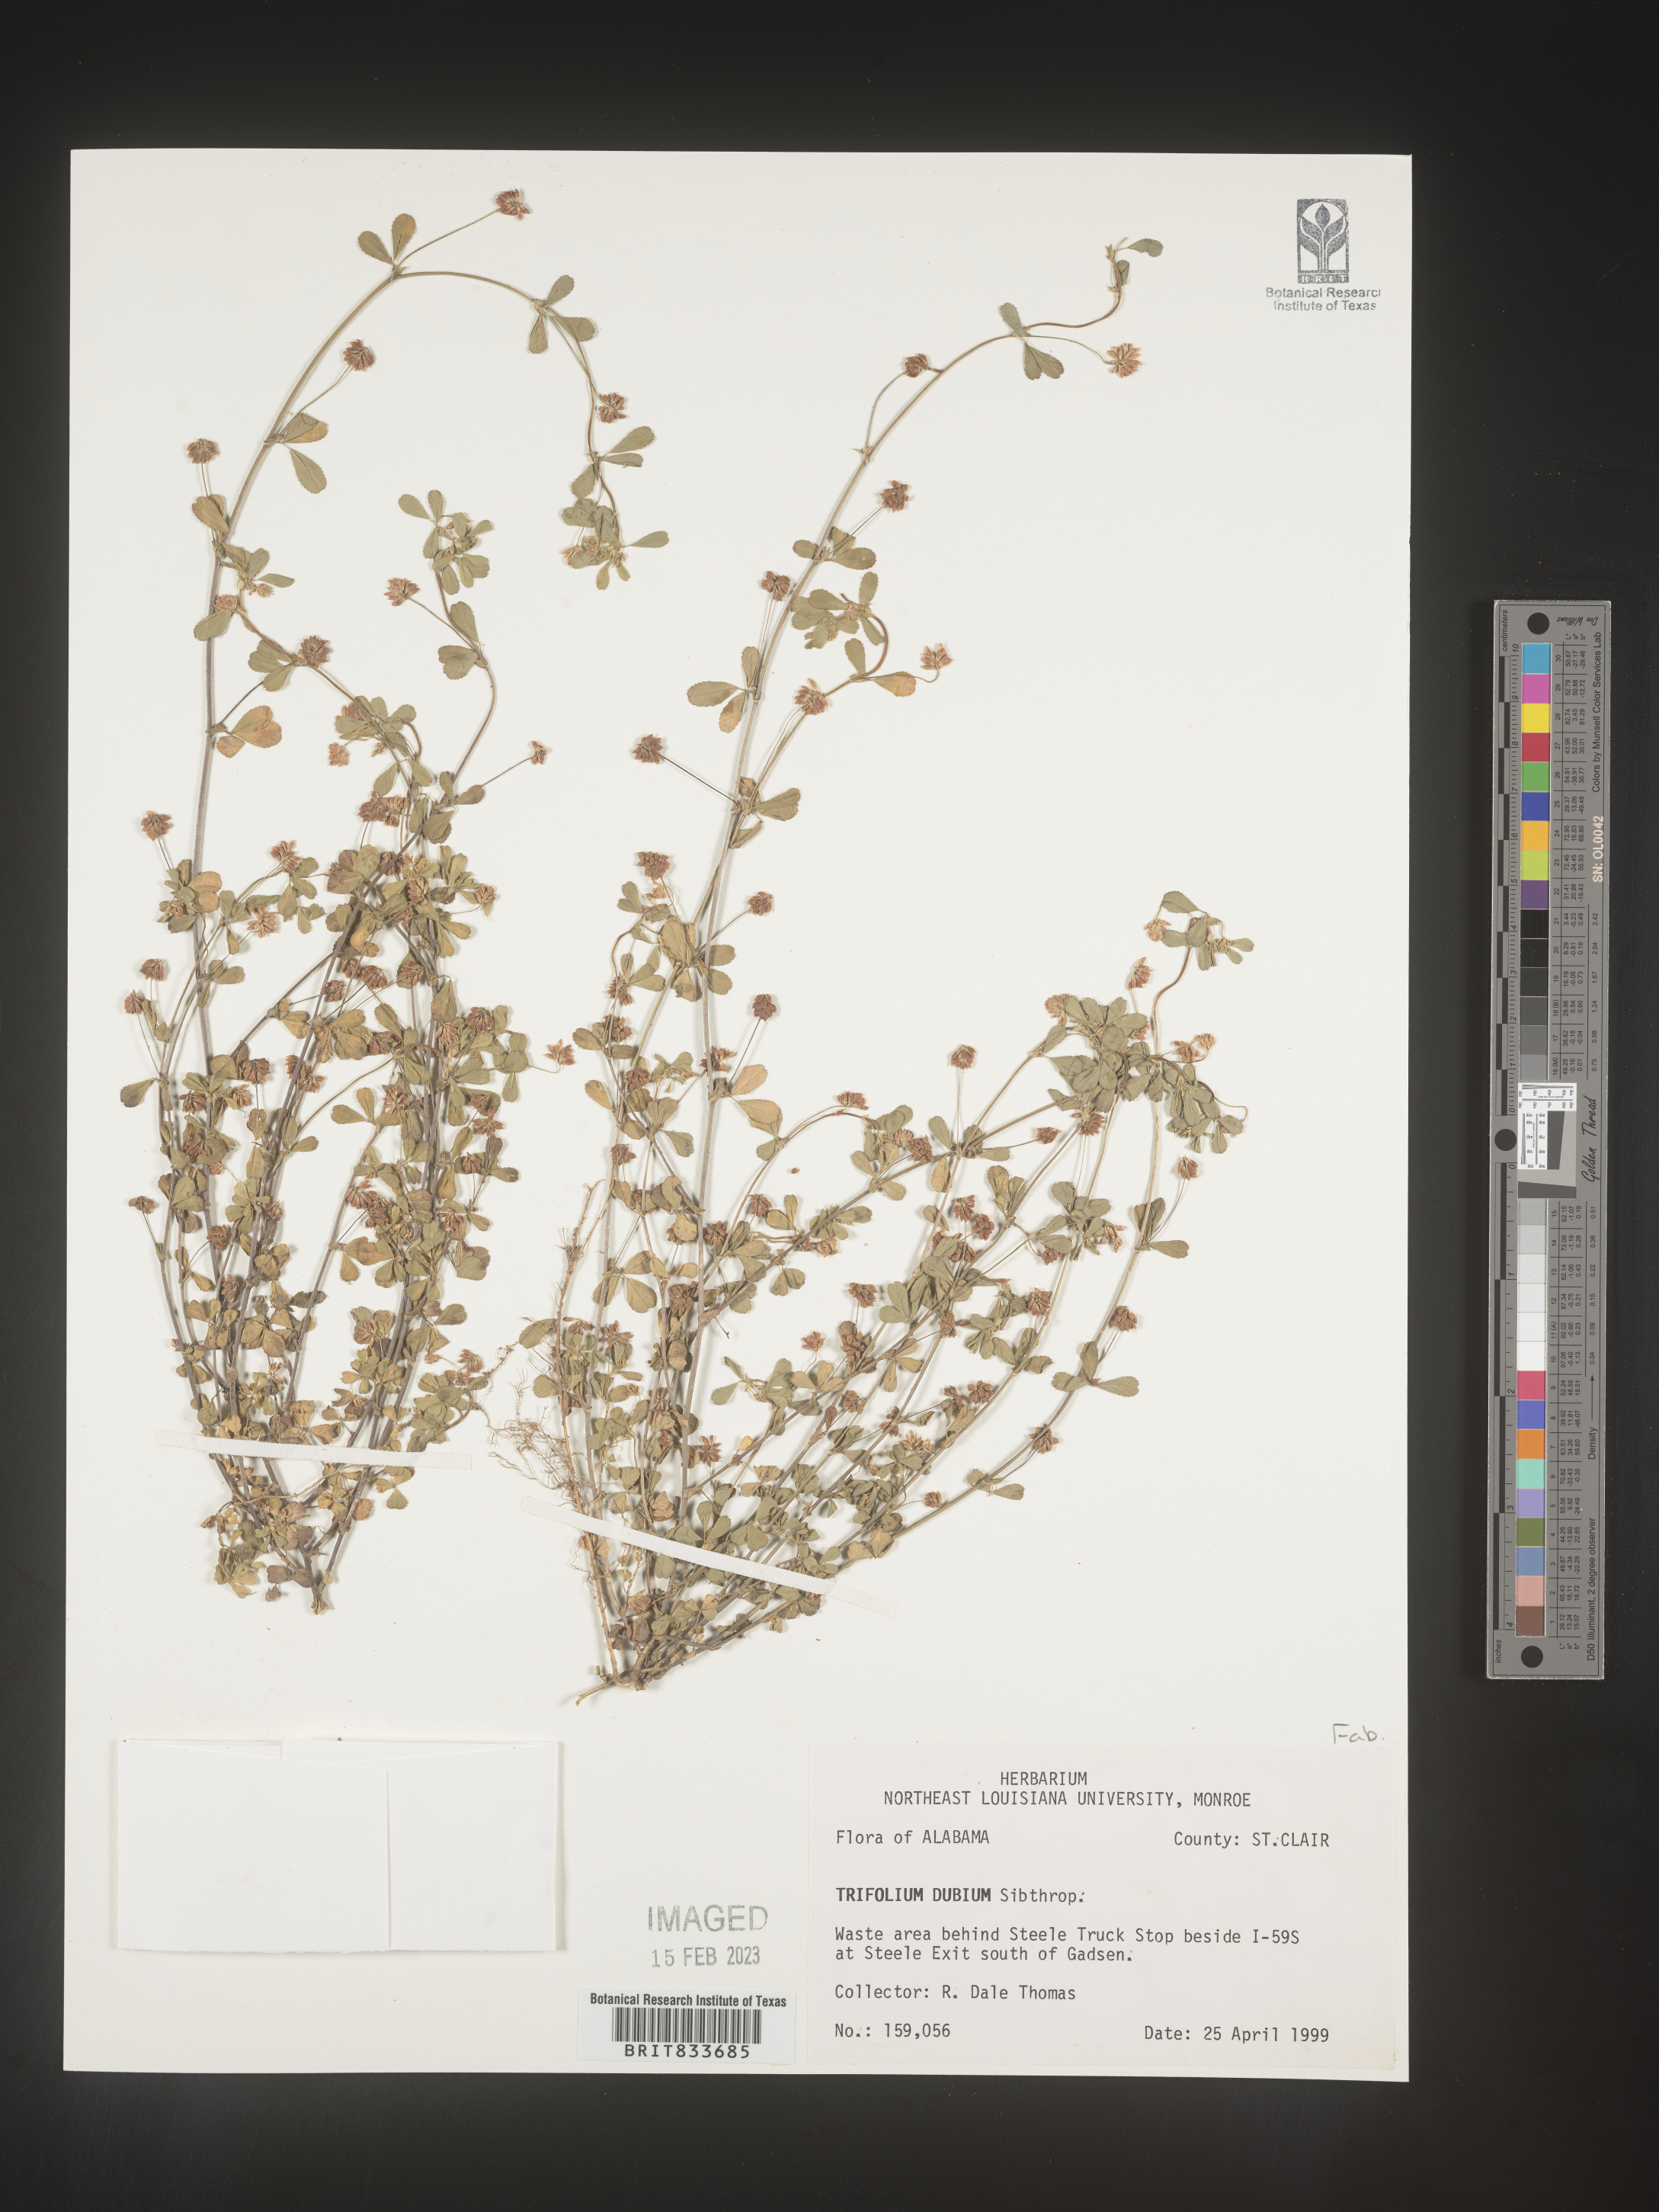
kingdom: Plantae
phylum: Tracheophyta
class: Magnoliopsida
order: Fabales
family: Fabaceae
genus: Trifolium
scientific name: Trifolium dubium
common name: Suckling clover
